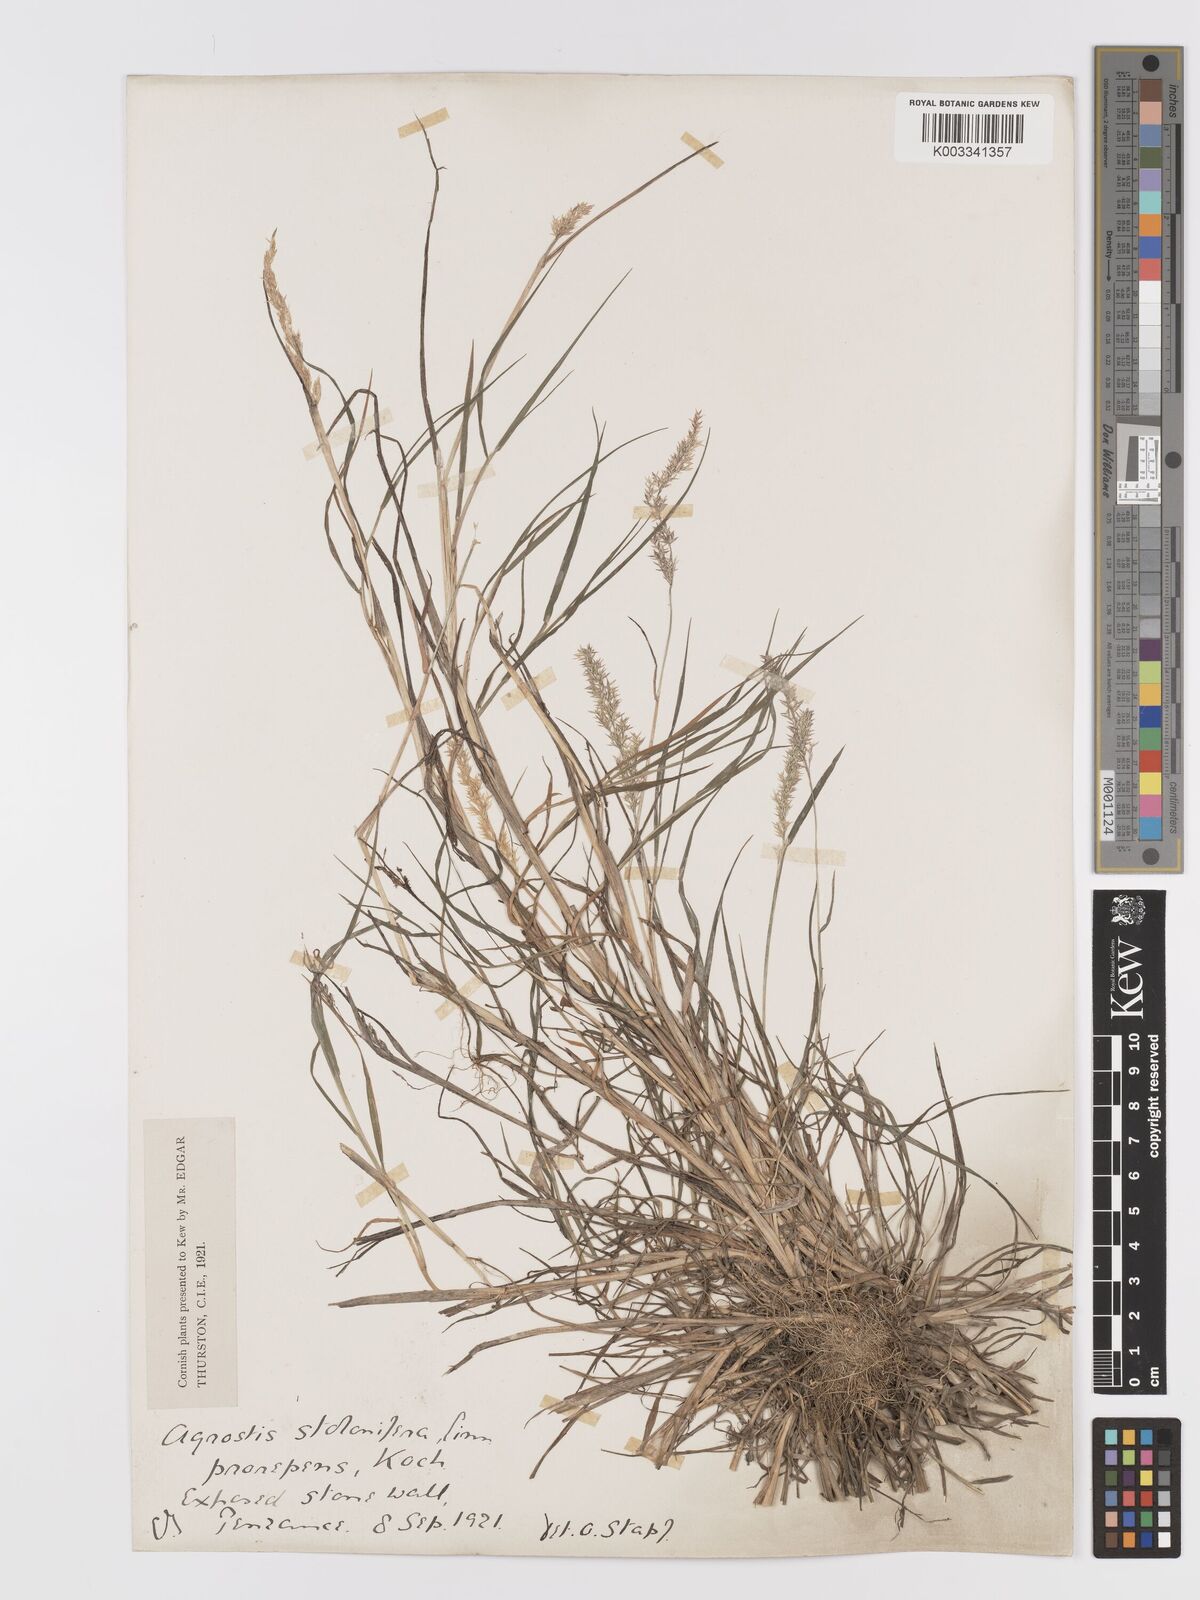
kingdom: Plantae
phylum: Tracheophyta
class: Liliopsida
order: Poales
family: Poaceae
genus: Agrostis
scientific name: Agrostis stolonifera
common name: Creeping bentgrass
